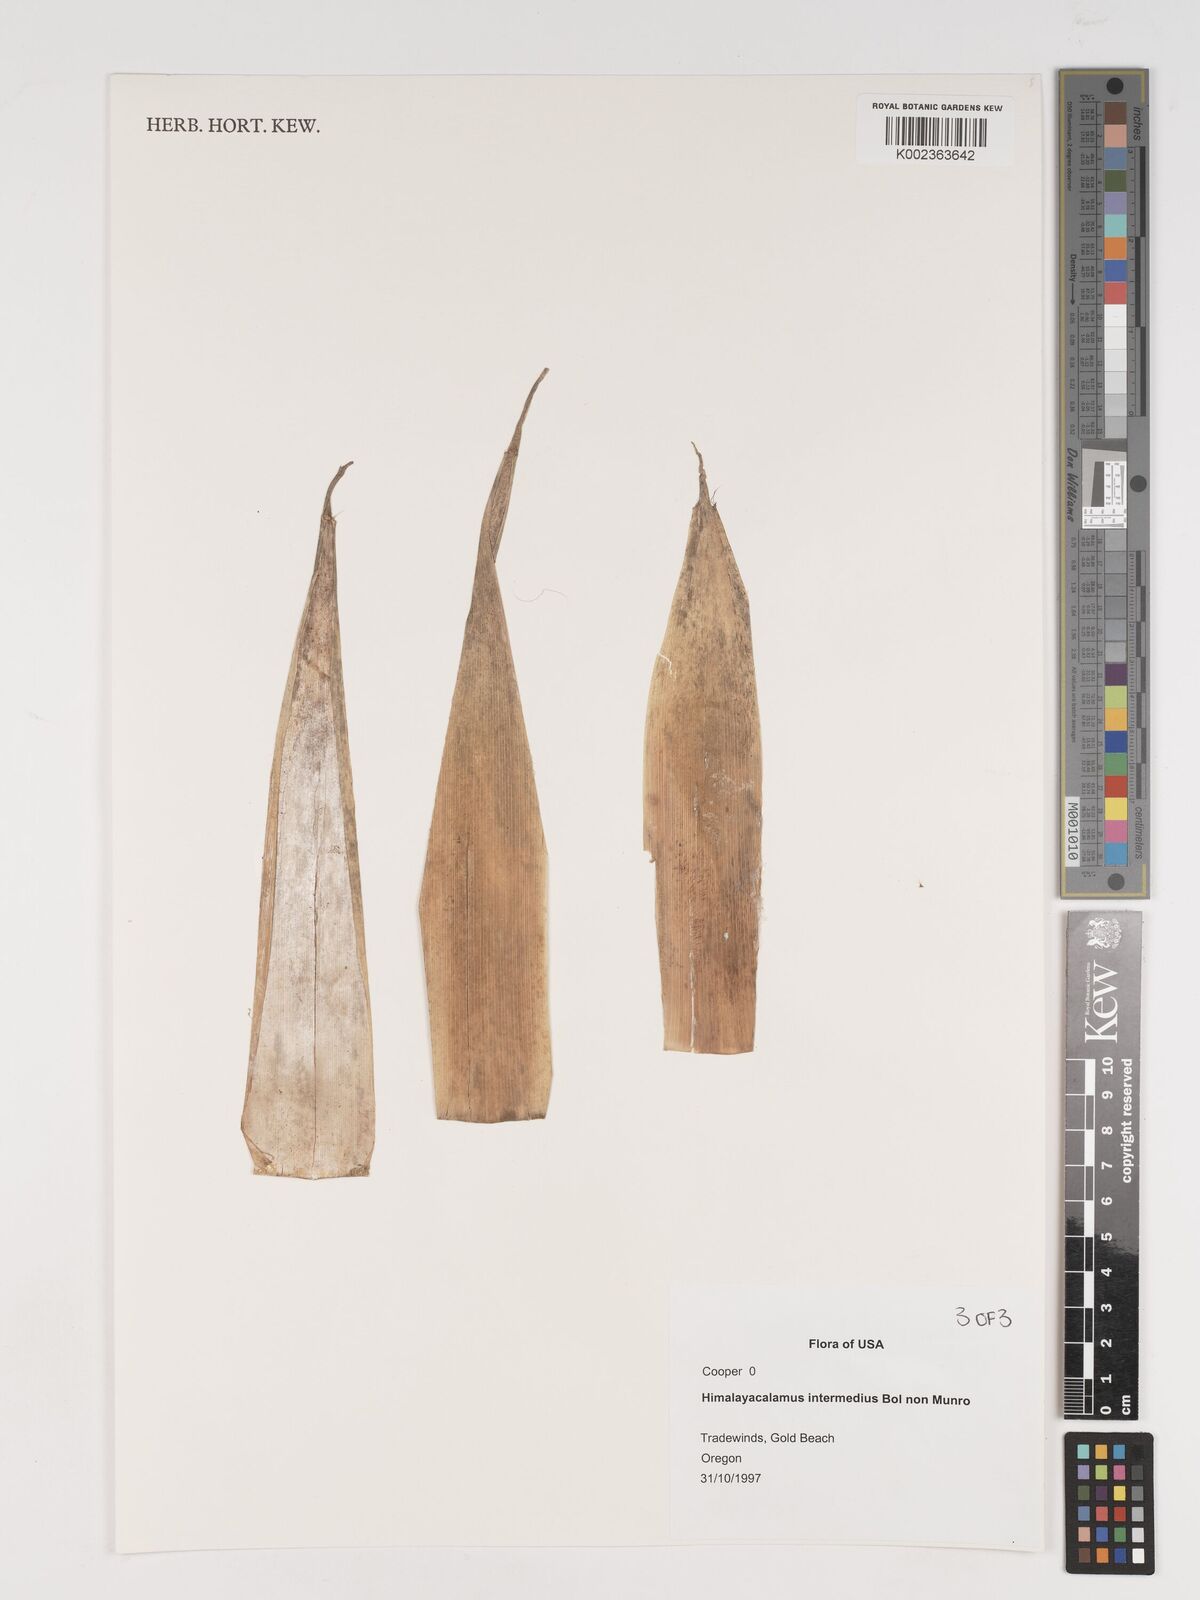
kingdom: Plantae
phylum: Tracheophyta
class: Liliopsida
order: Poales
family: Poaceae
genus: Himalayacalamus
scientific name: Himalayacalamus
